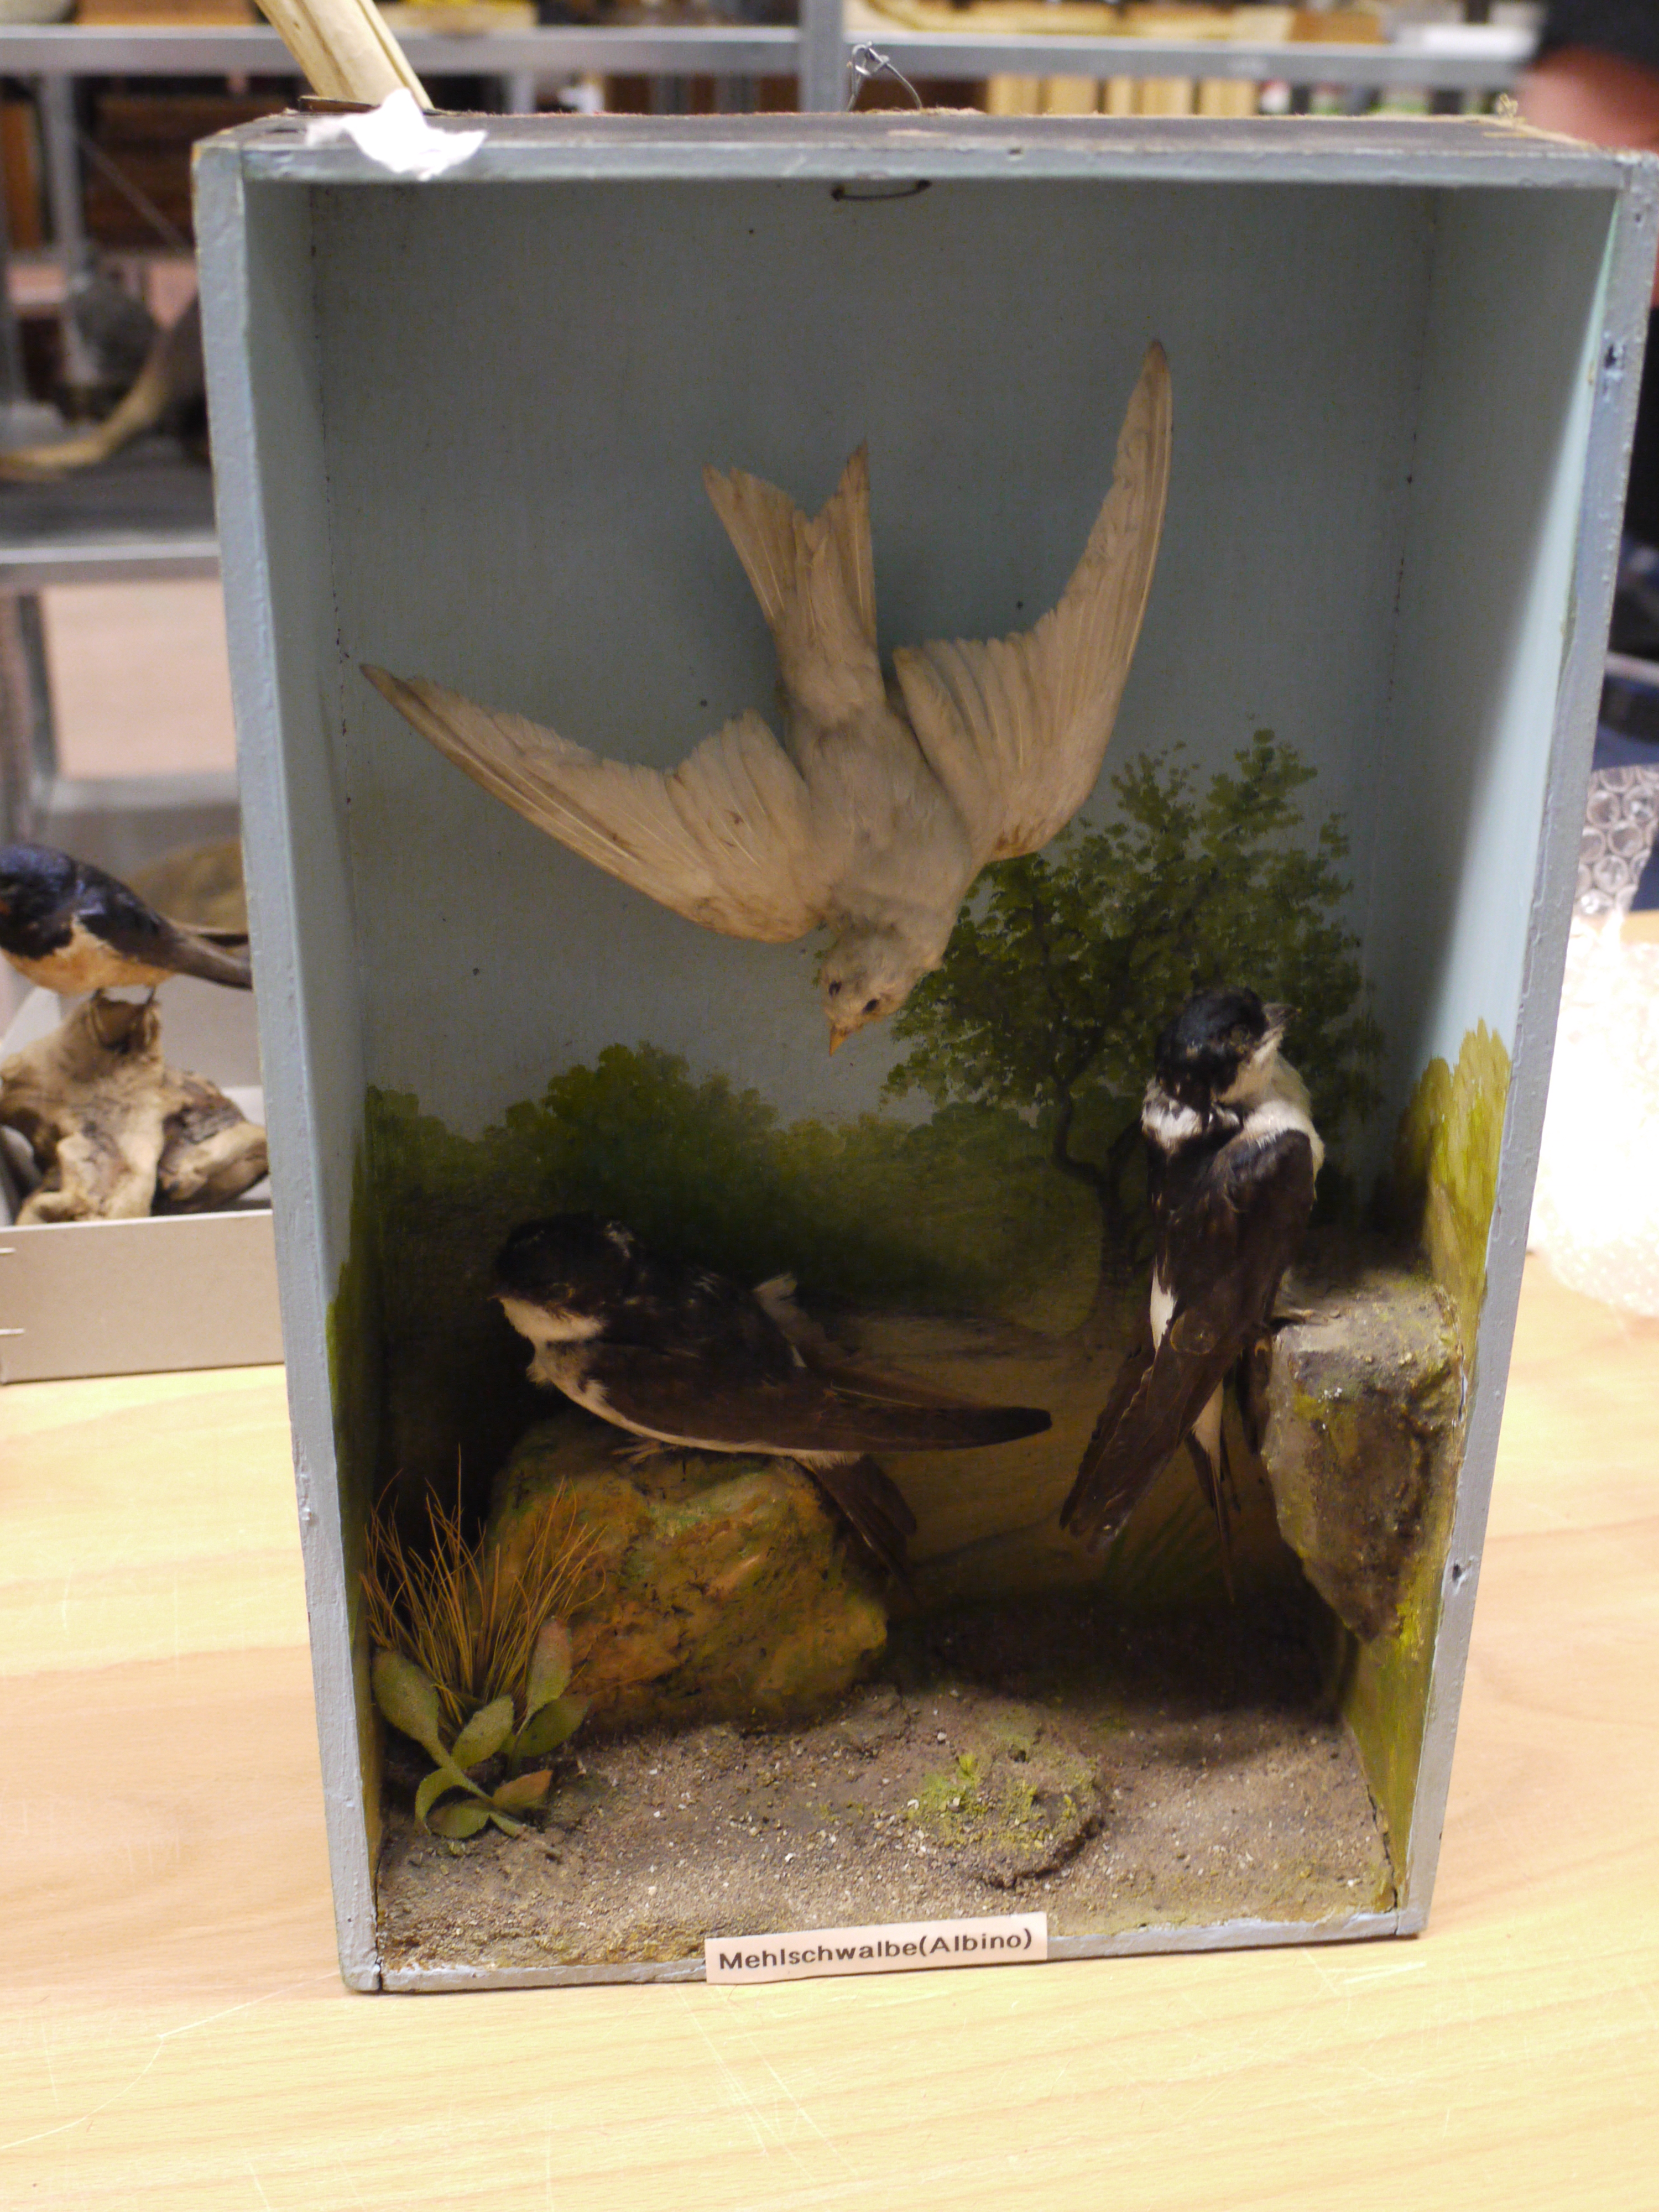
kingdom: Animalia
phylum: Chordata
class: Aves
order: Passeriformes
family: Hirundinidae
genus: Delichon
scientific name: Delichon urbicum
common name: Common house martin
